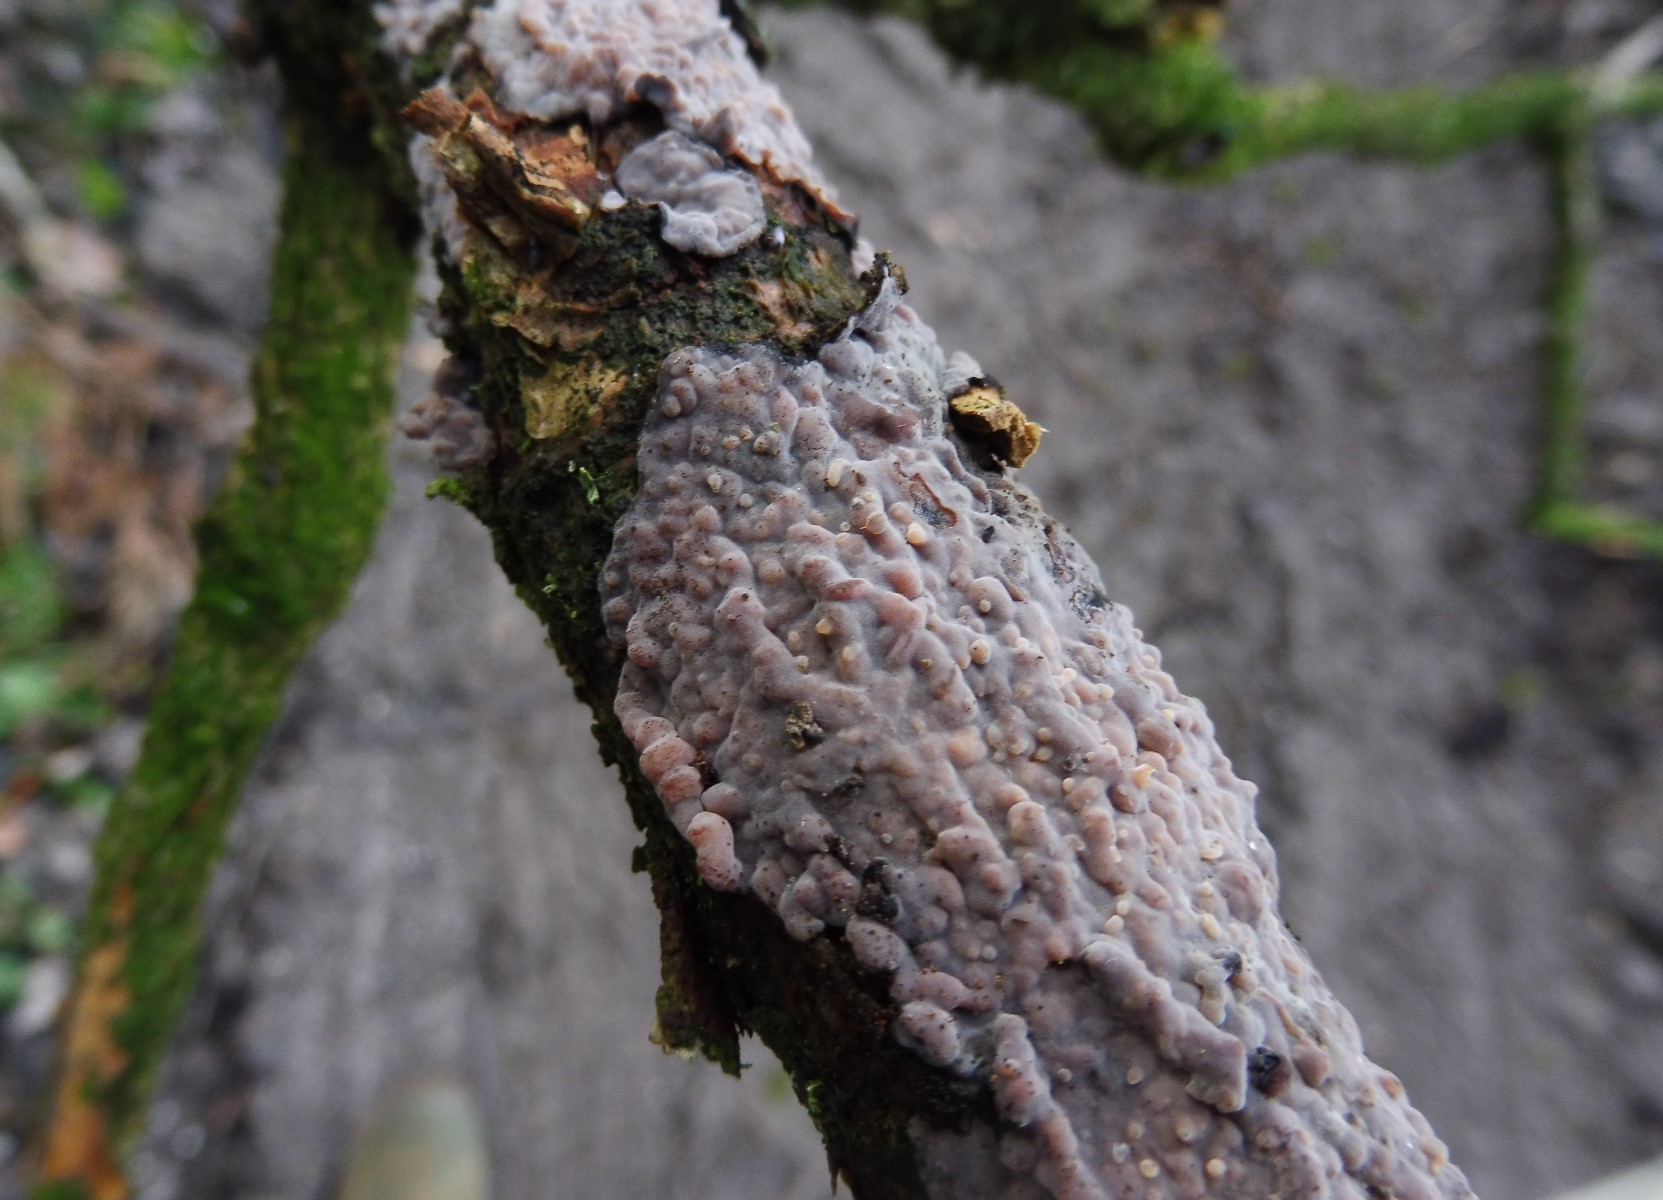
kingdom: Fungi
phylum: Basidiomycota
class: Agaricomycetes
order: Russulales
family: Peniophoraceae
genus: Peniophora
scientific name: Peniophora quercina
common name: ege-voksskind
